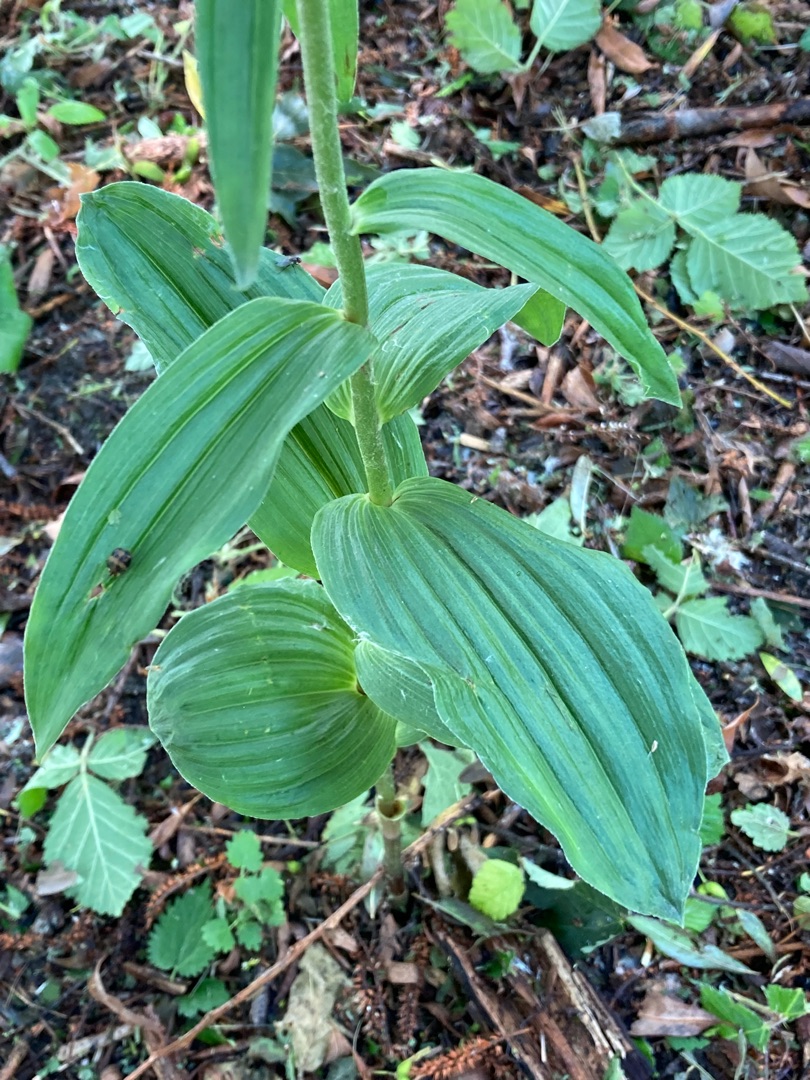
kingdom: Plantae
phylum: Tracheophyta
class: Liliopsida
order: Asparagales
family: Orchidaceae
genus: Epipactis
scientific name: Epipactis helleborine
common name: Skov-hullæbe
